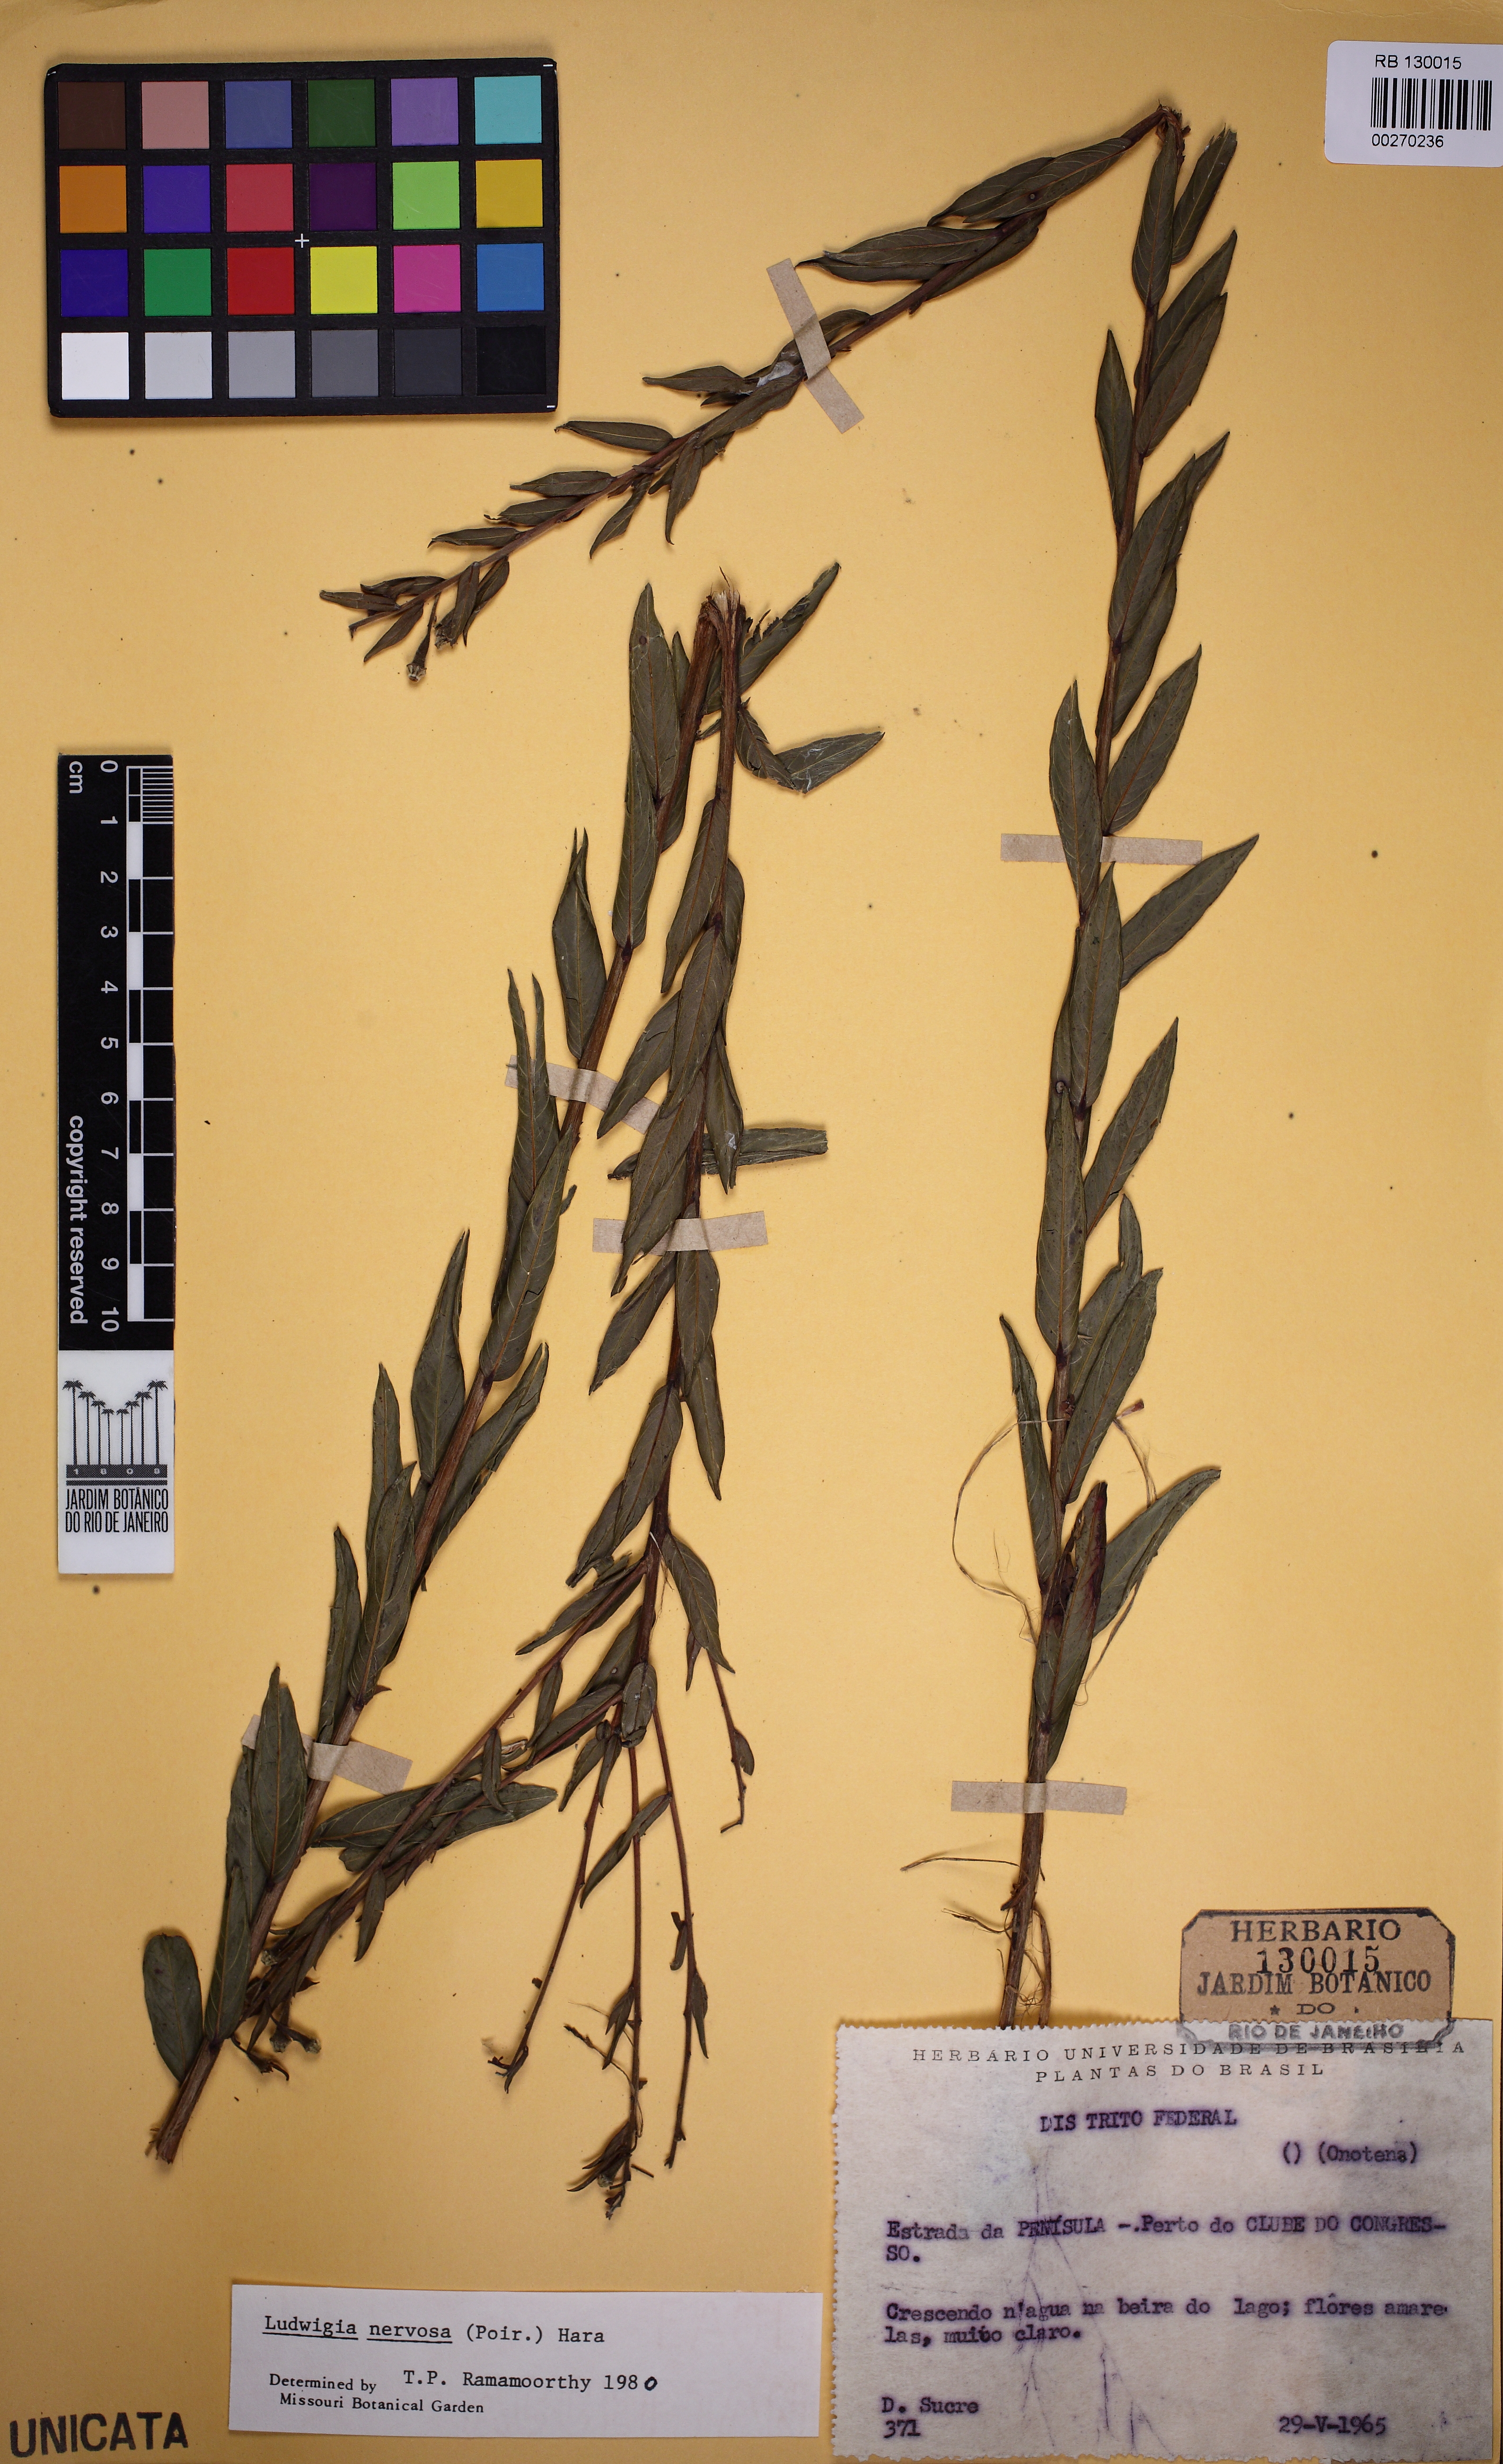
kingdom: Plantae
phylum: Tracheophyta
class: Magnoliopsida
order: Myrtales
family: Onagraceae
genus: Ludwigia
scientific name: Ludwigia nervosa
